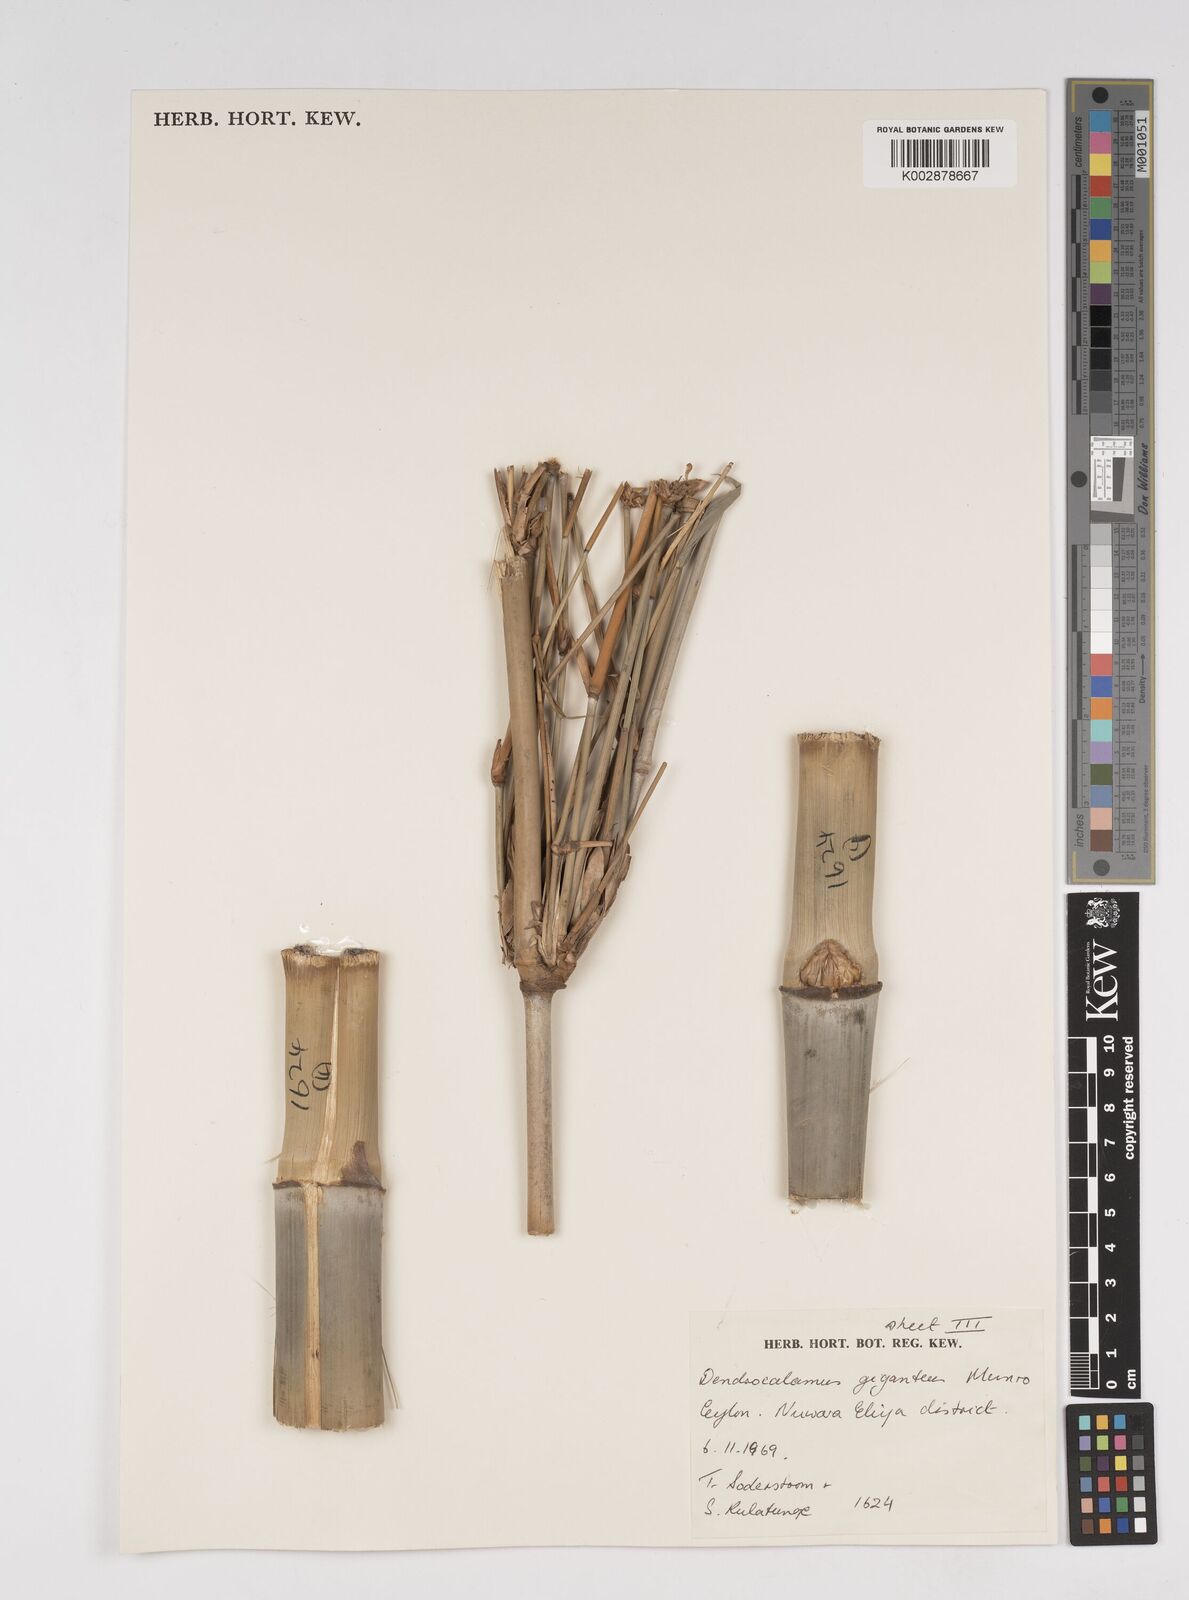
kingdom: Plantae
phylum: Tracheophyta
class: Liliopsida
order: Poales
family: Poaceae
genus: Dendrocalamus
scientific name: Dendrocalamus giganteus
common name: Giant bamboo
